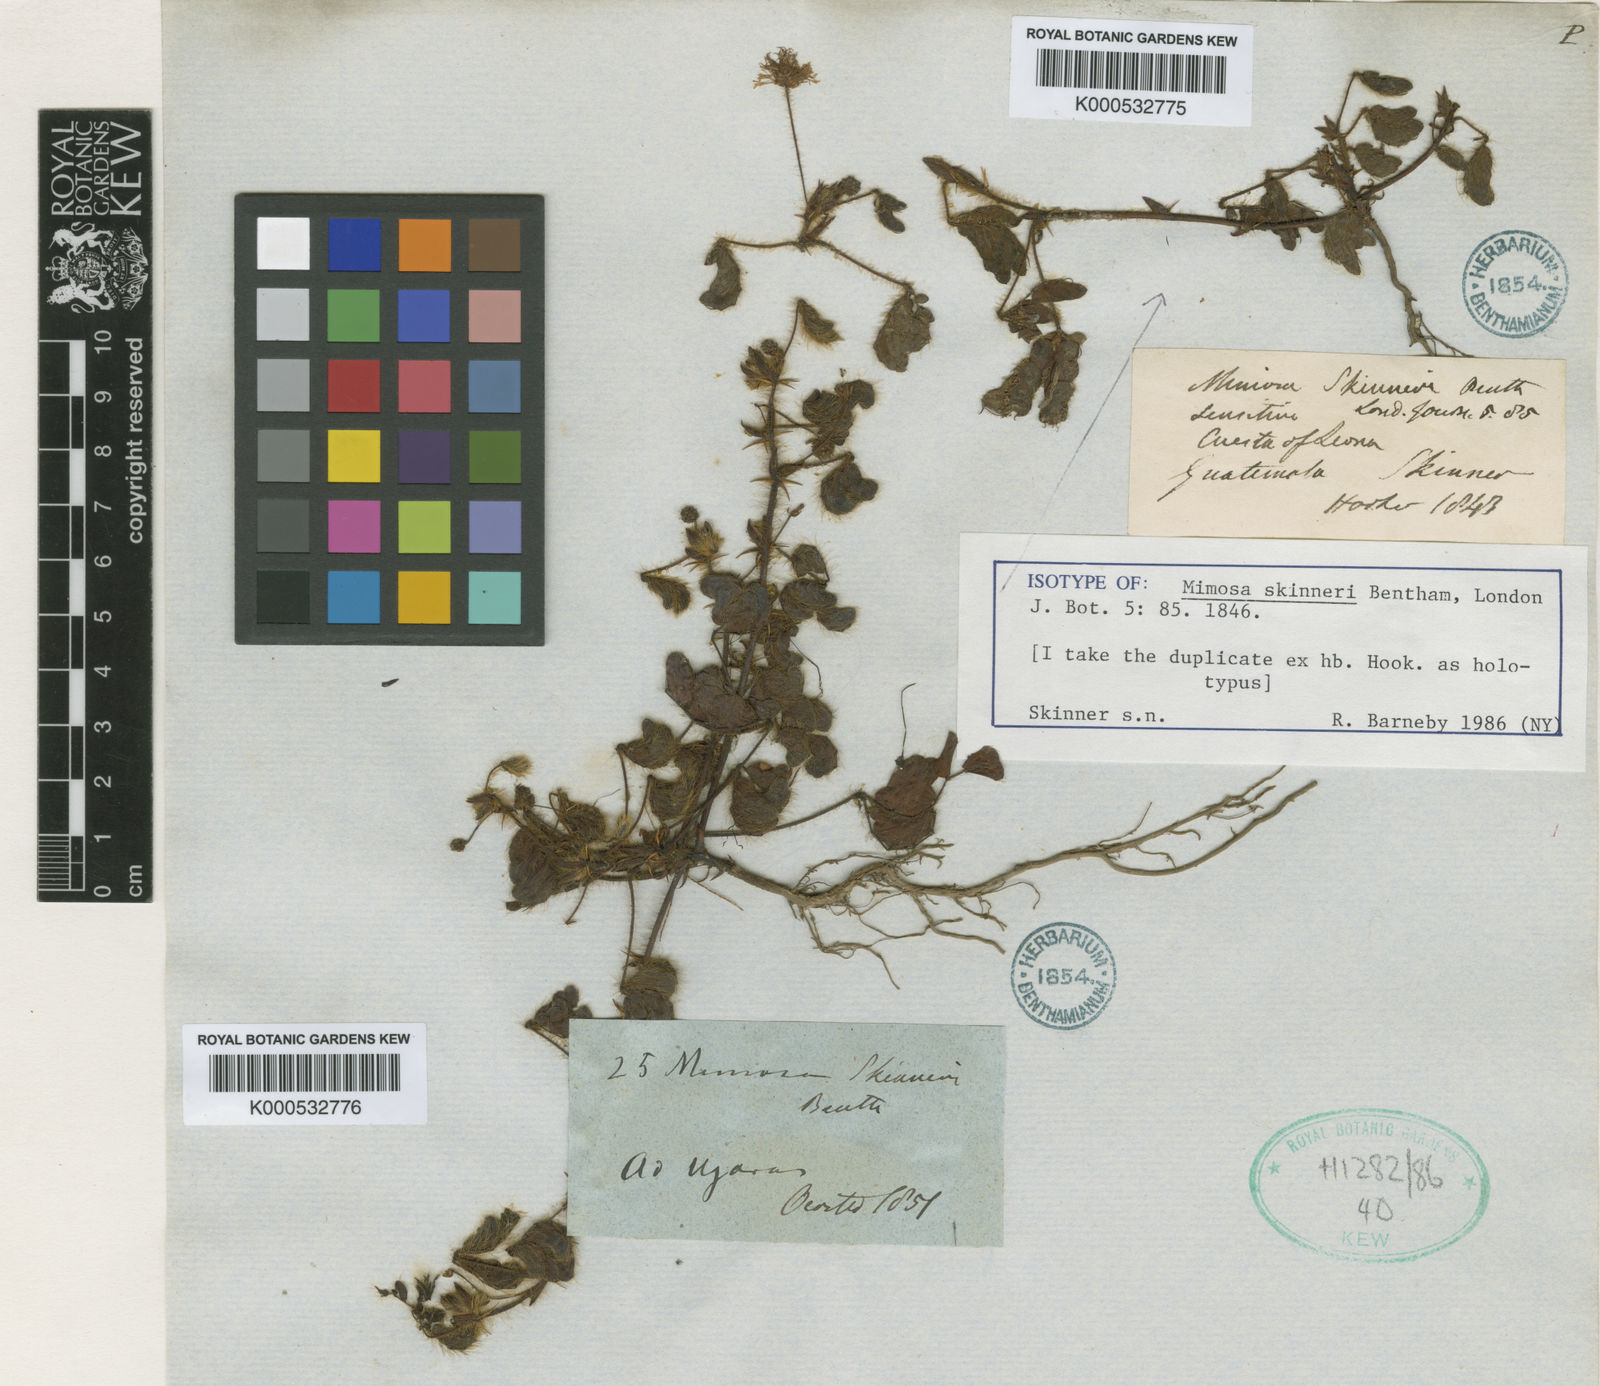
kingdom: Plantae
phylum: Tracheophyta
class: Magnoliopsida
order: Fabales
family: Fabaceae
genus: Mimosa
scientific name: Mimosa skinneri
